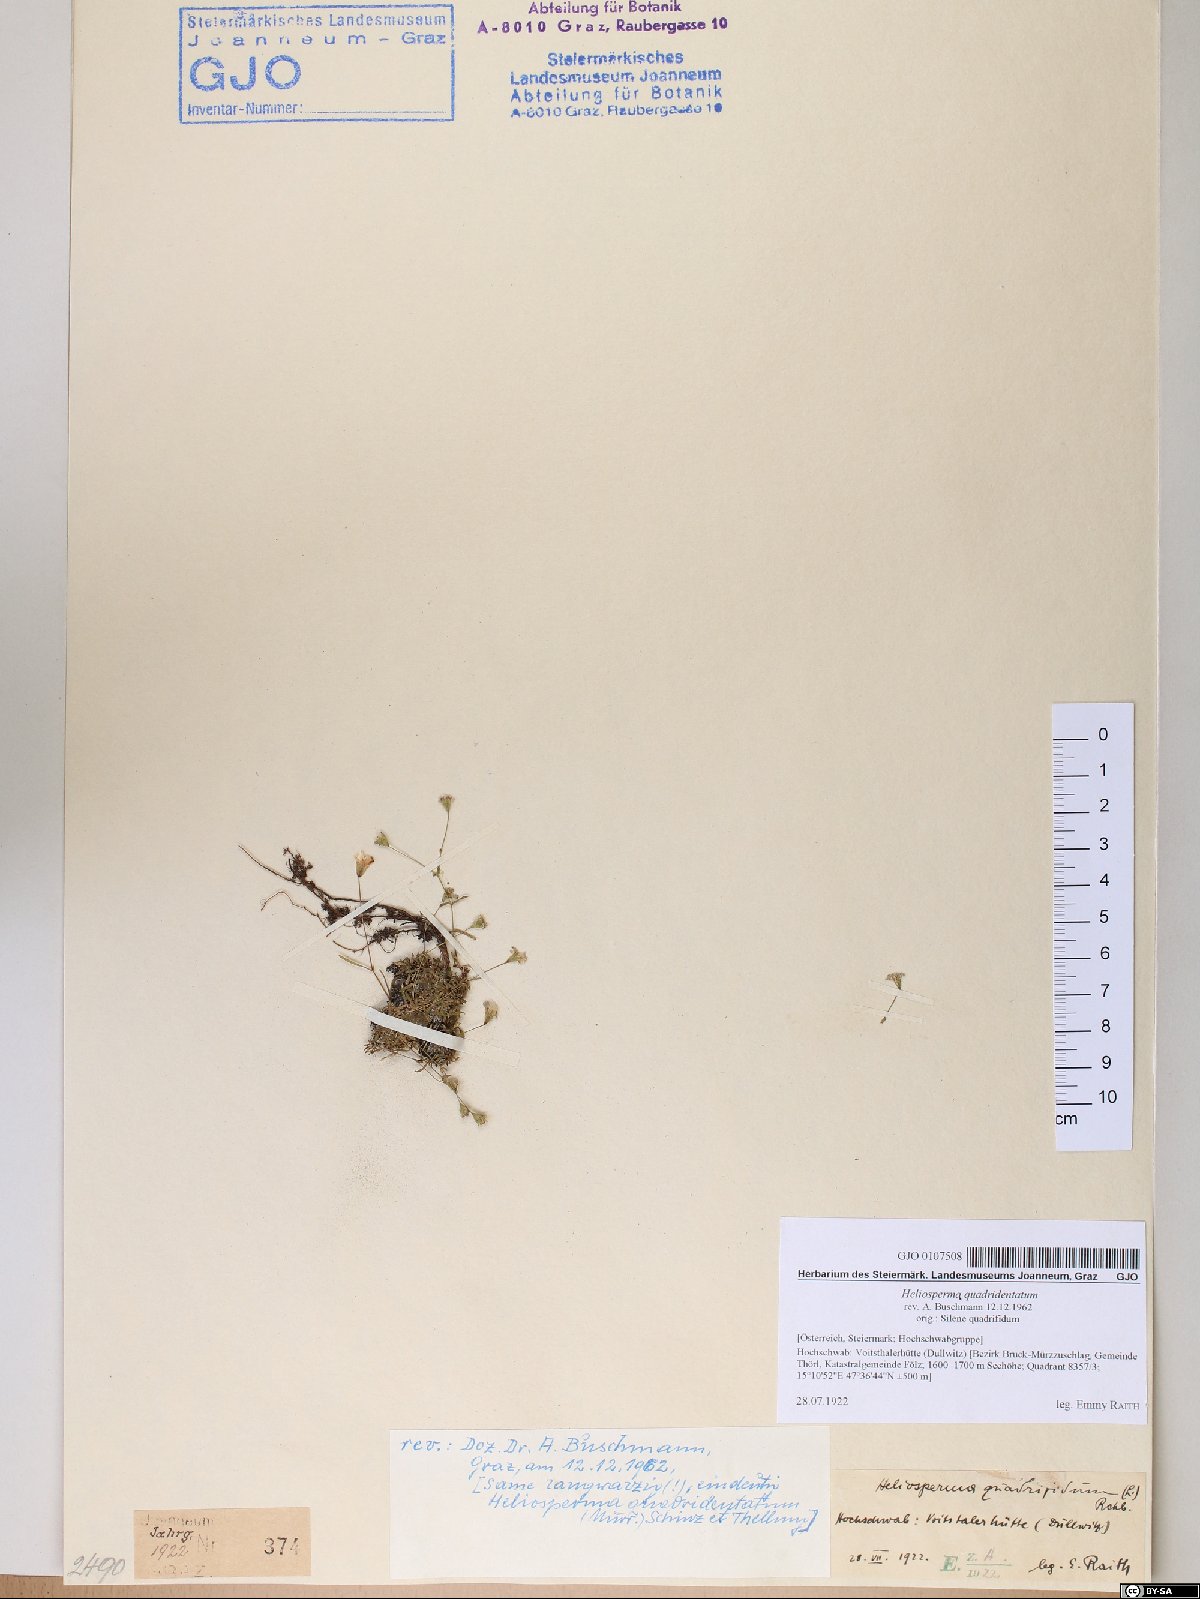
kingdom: Plantae
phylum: Tracheophyta
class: Magnoliopsida
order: Caryophyllales
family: Caryophyllaceae
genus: Heliosperma
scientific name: Heliosperma alpestre
